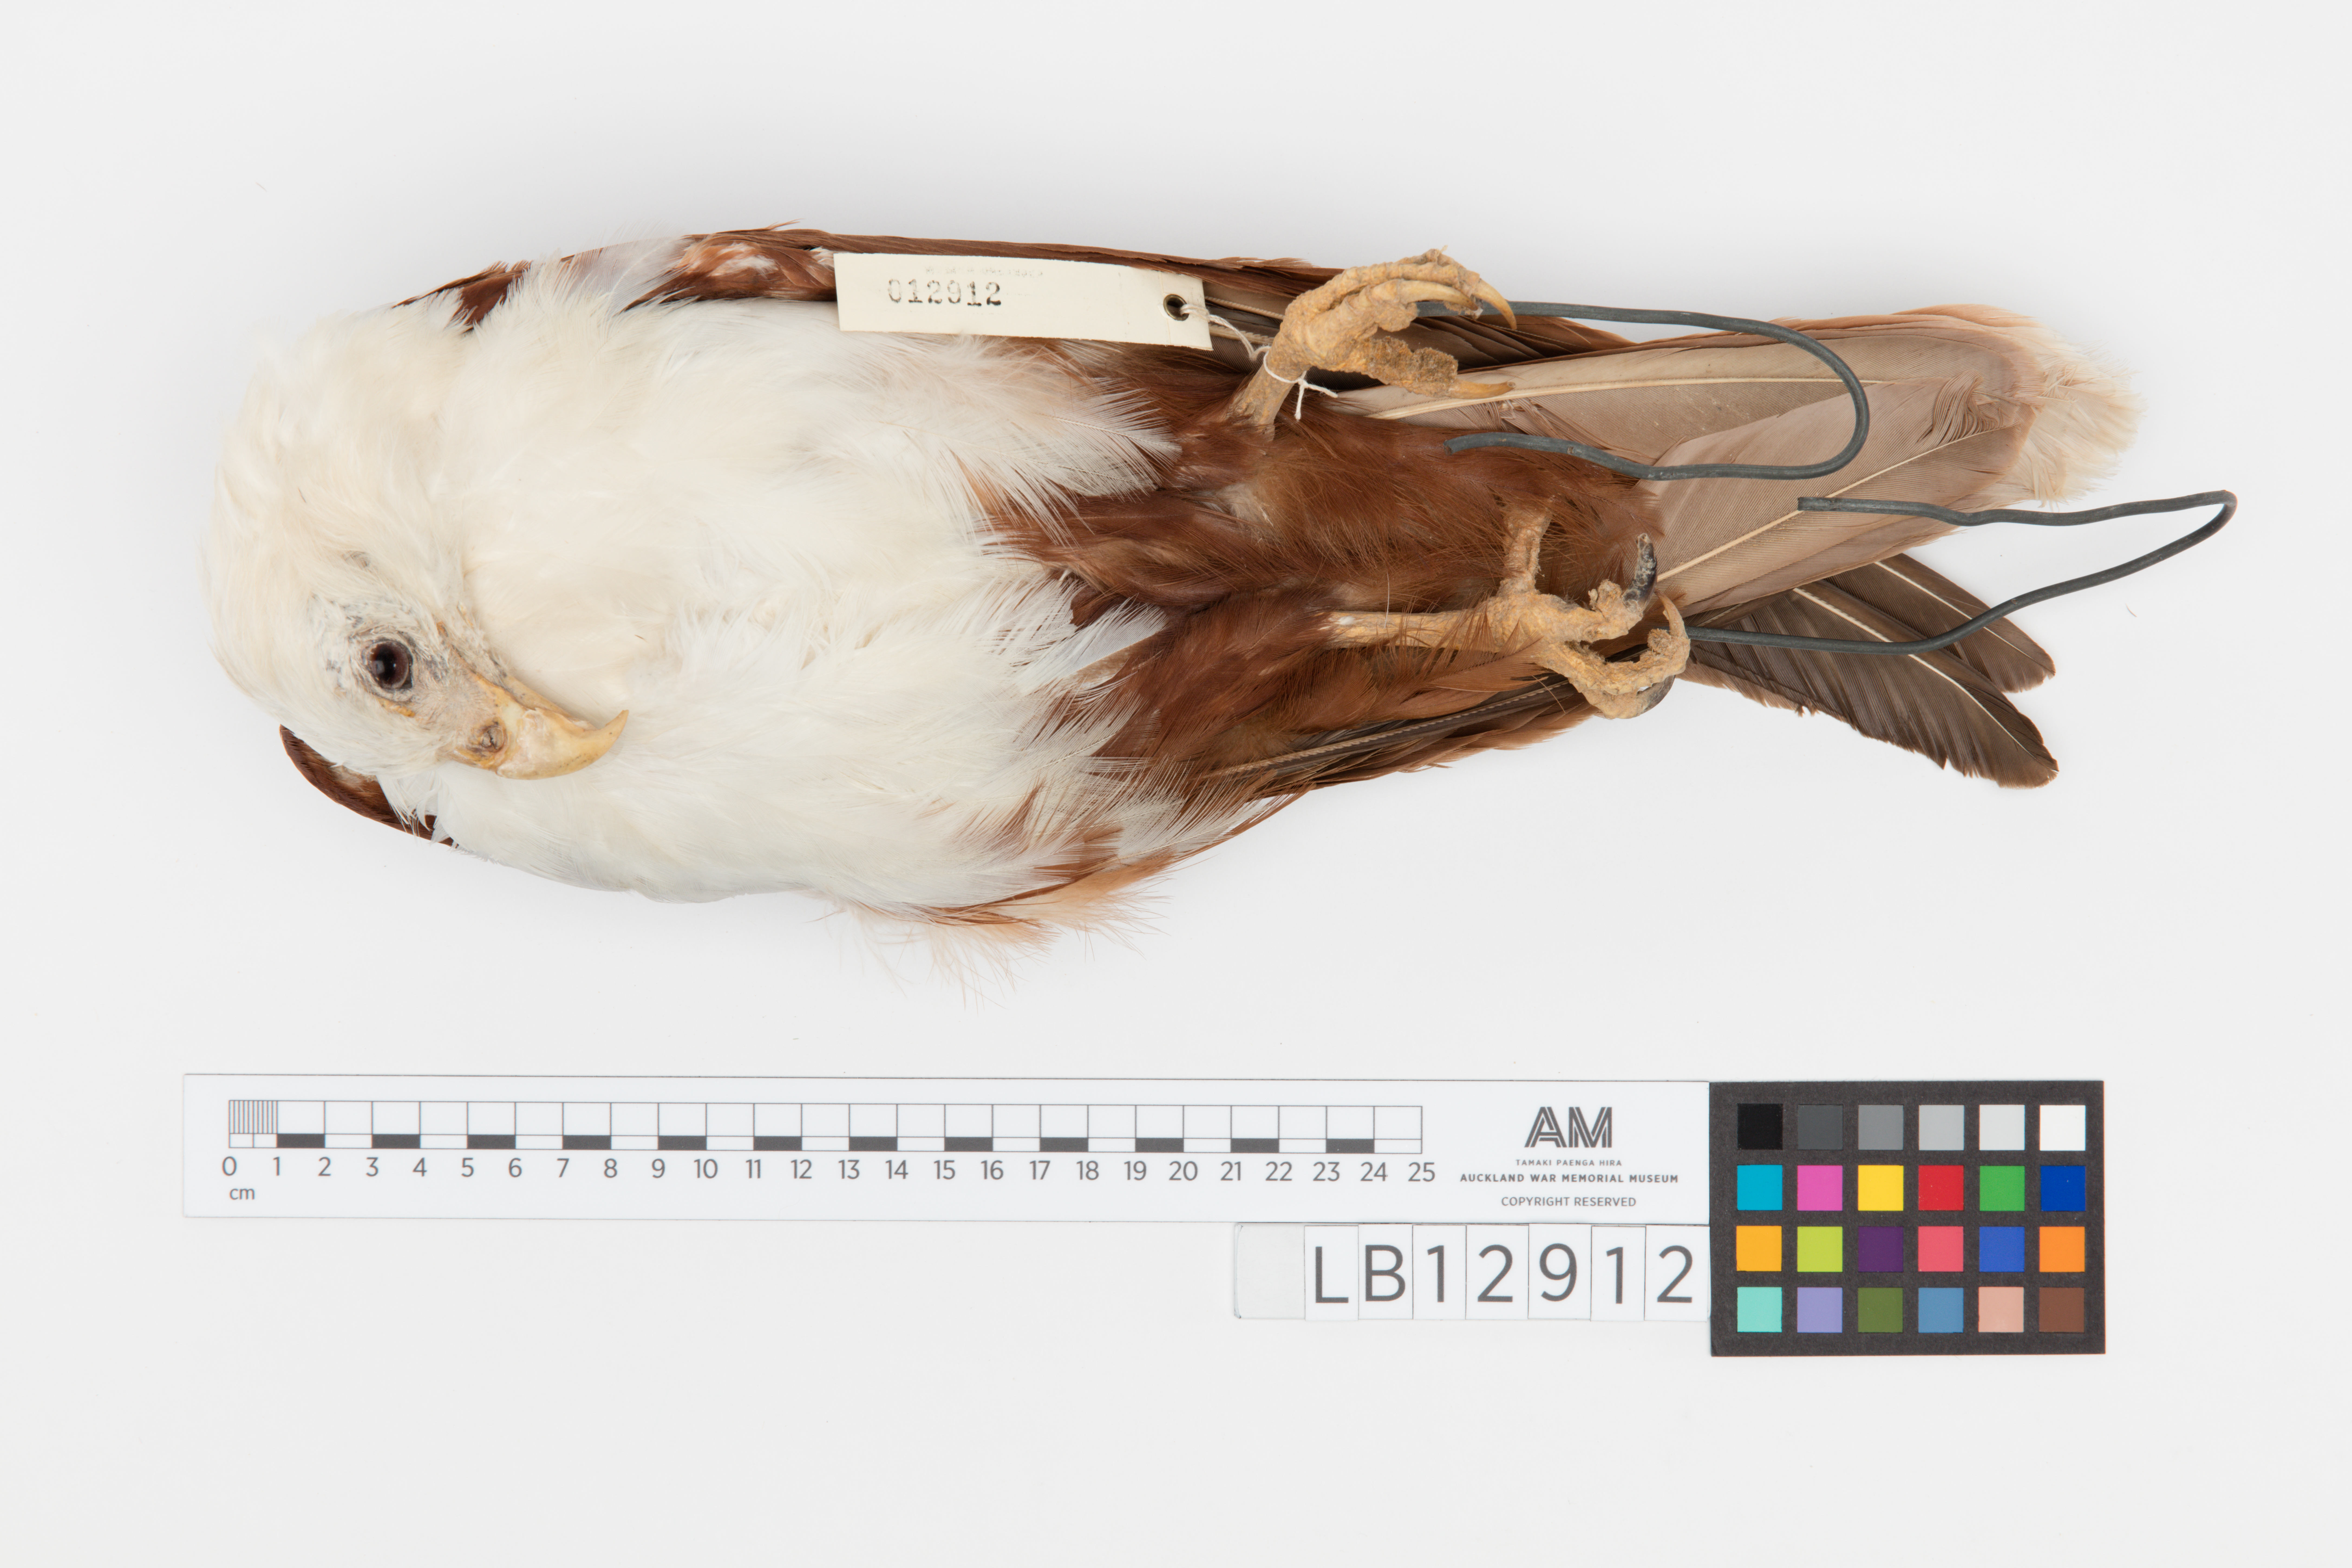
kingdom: Animalia
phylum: Chordata
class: Aves
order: Accipitriformes
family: Accipitridae
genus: Haliastur
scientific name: Haliastur indus
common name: Brahminy kite
